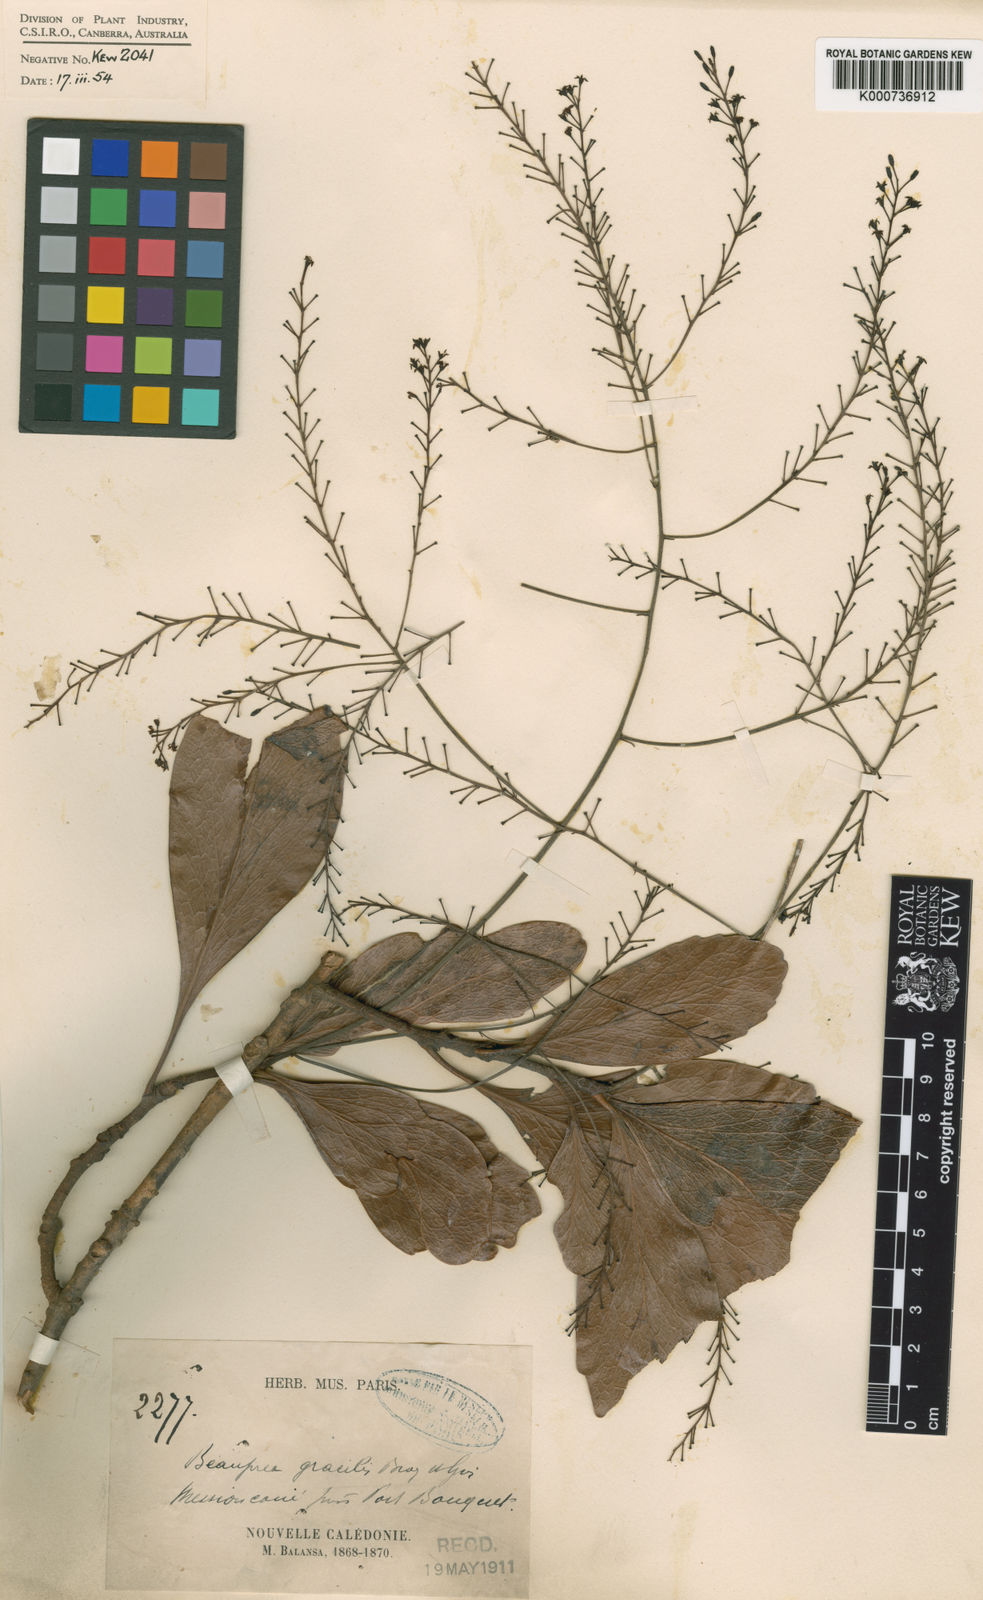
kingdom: Plantae
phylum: Tracheophyta
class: Magnoliopsida
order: Proteales
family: Proteaceae
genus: Beauprea
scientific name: Beauprea gracilis
